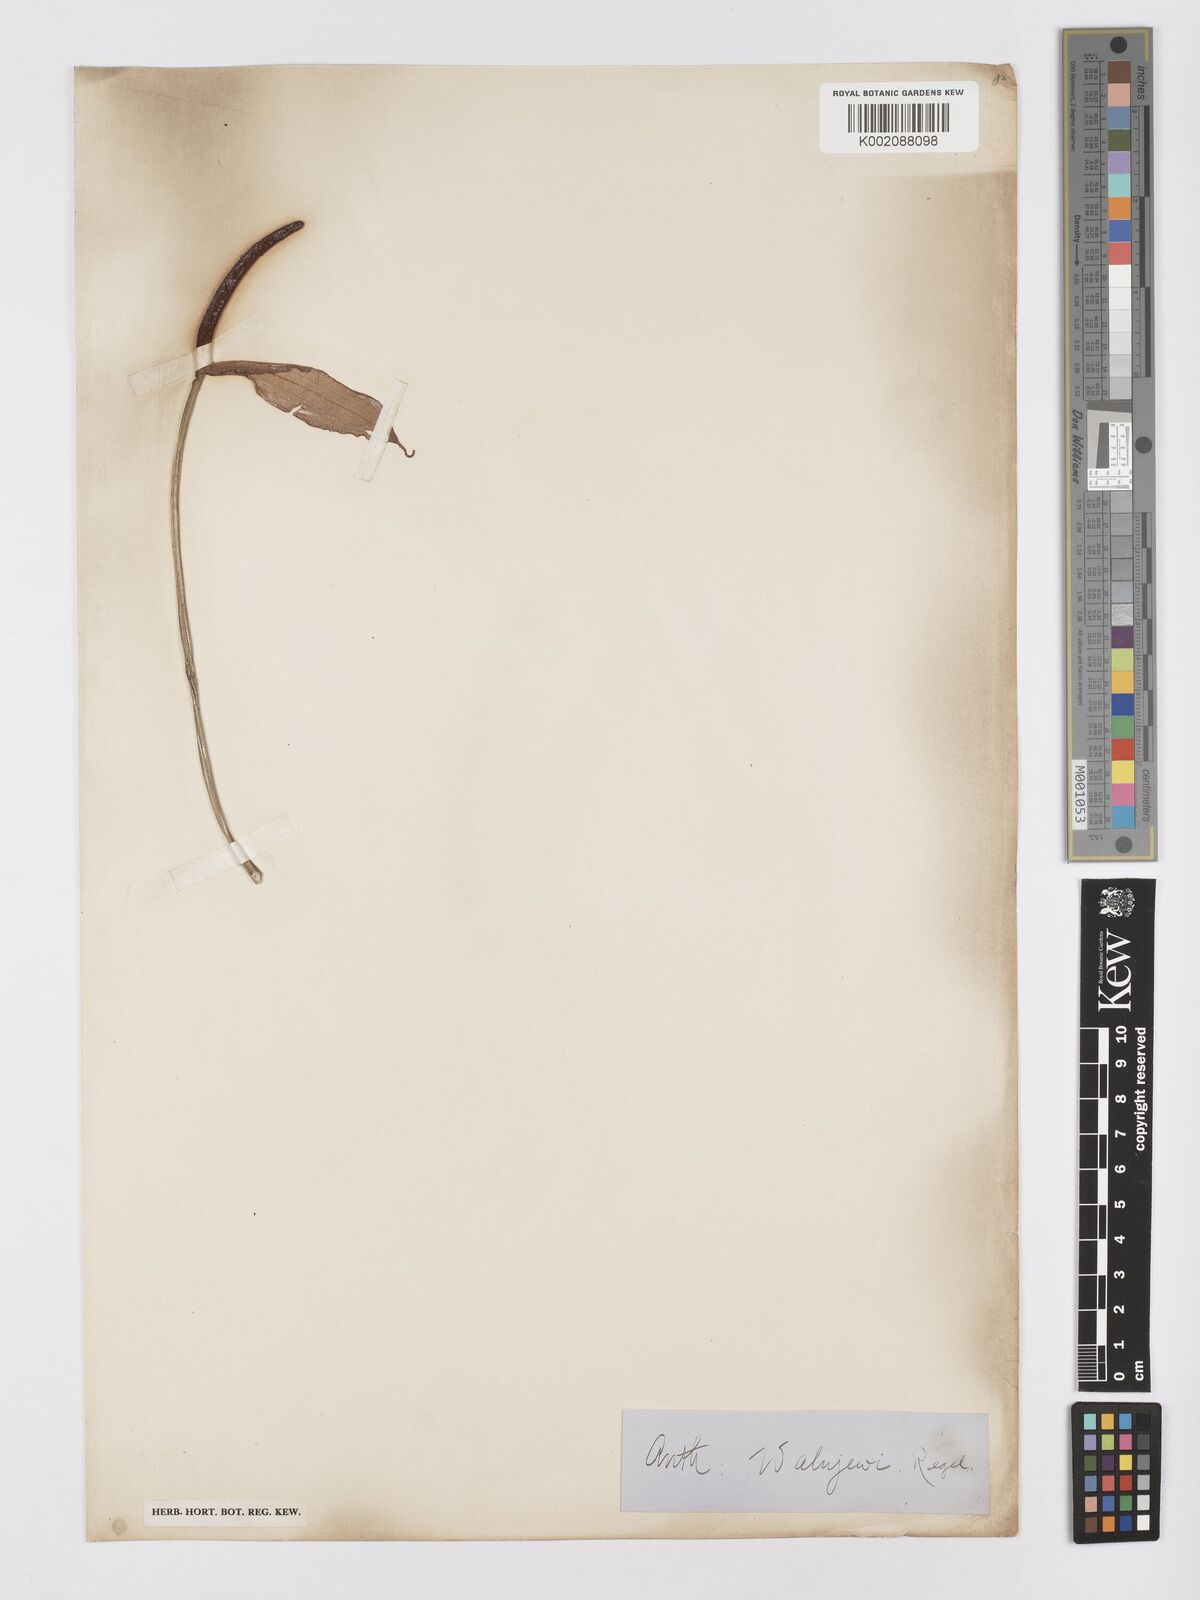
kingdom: Plantae
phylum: Tracheophyta
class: Liliopsida
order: Alismatales
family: Araceae
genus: Anthurium
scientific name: Anthurium walujewii
